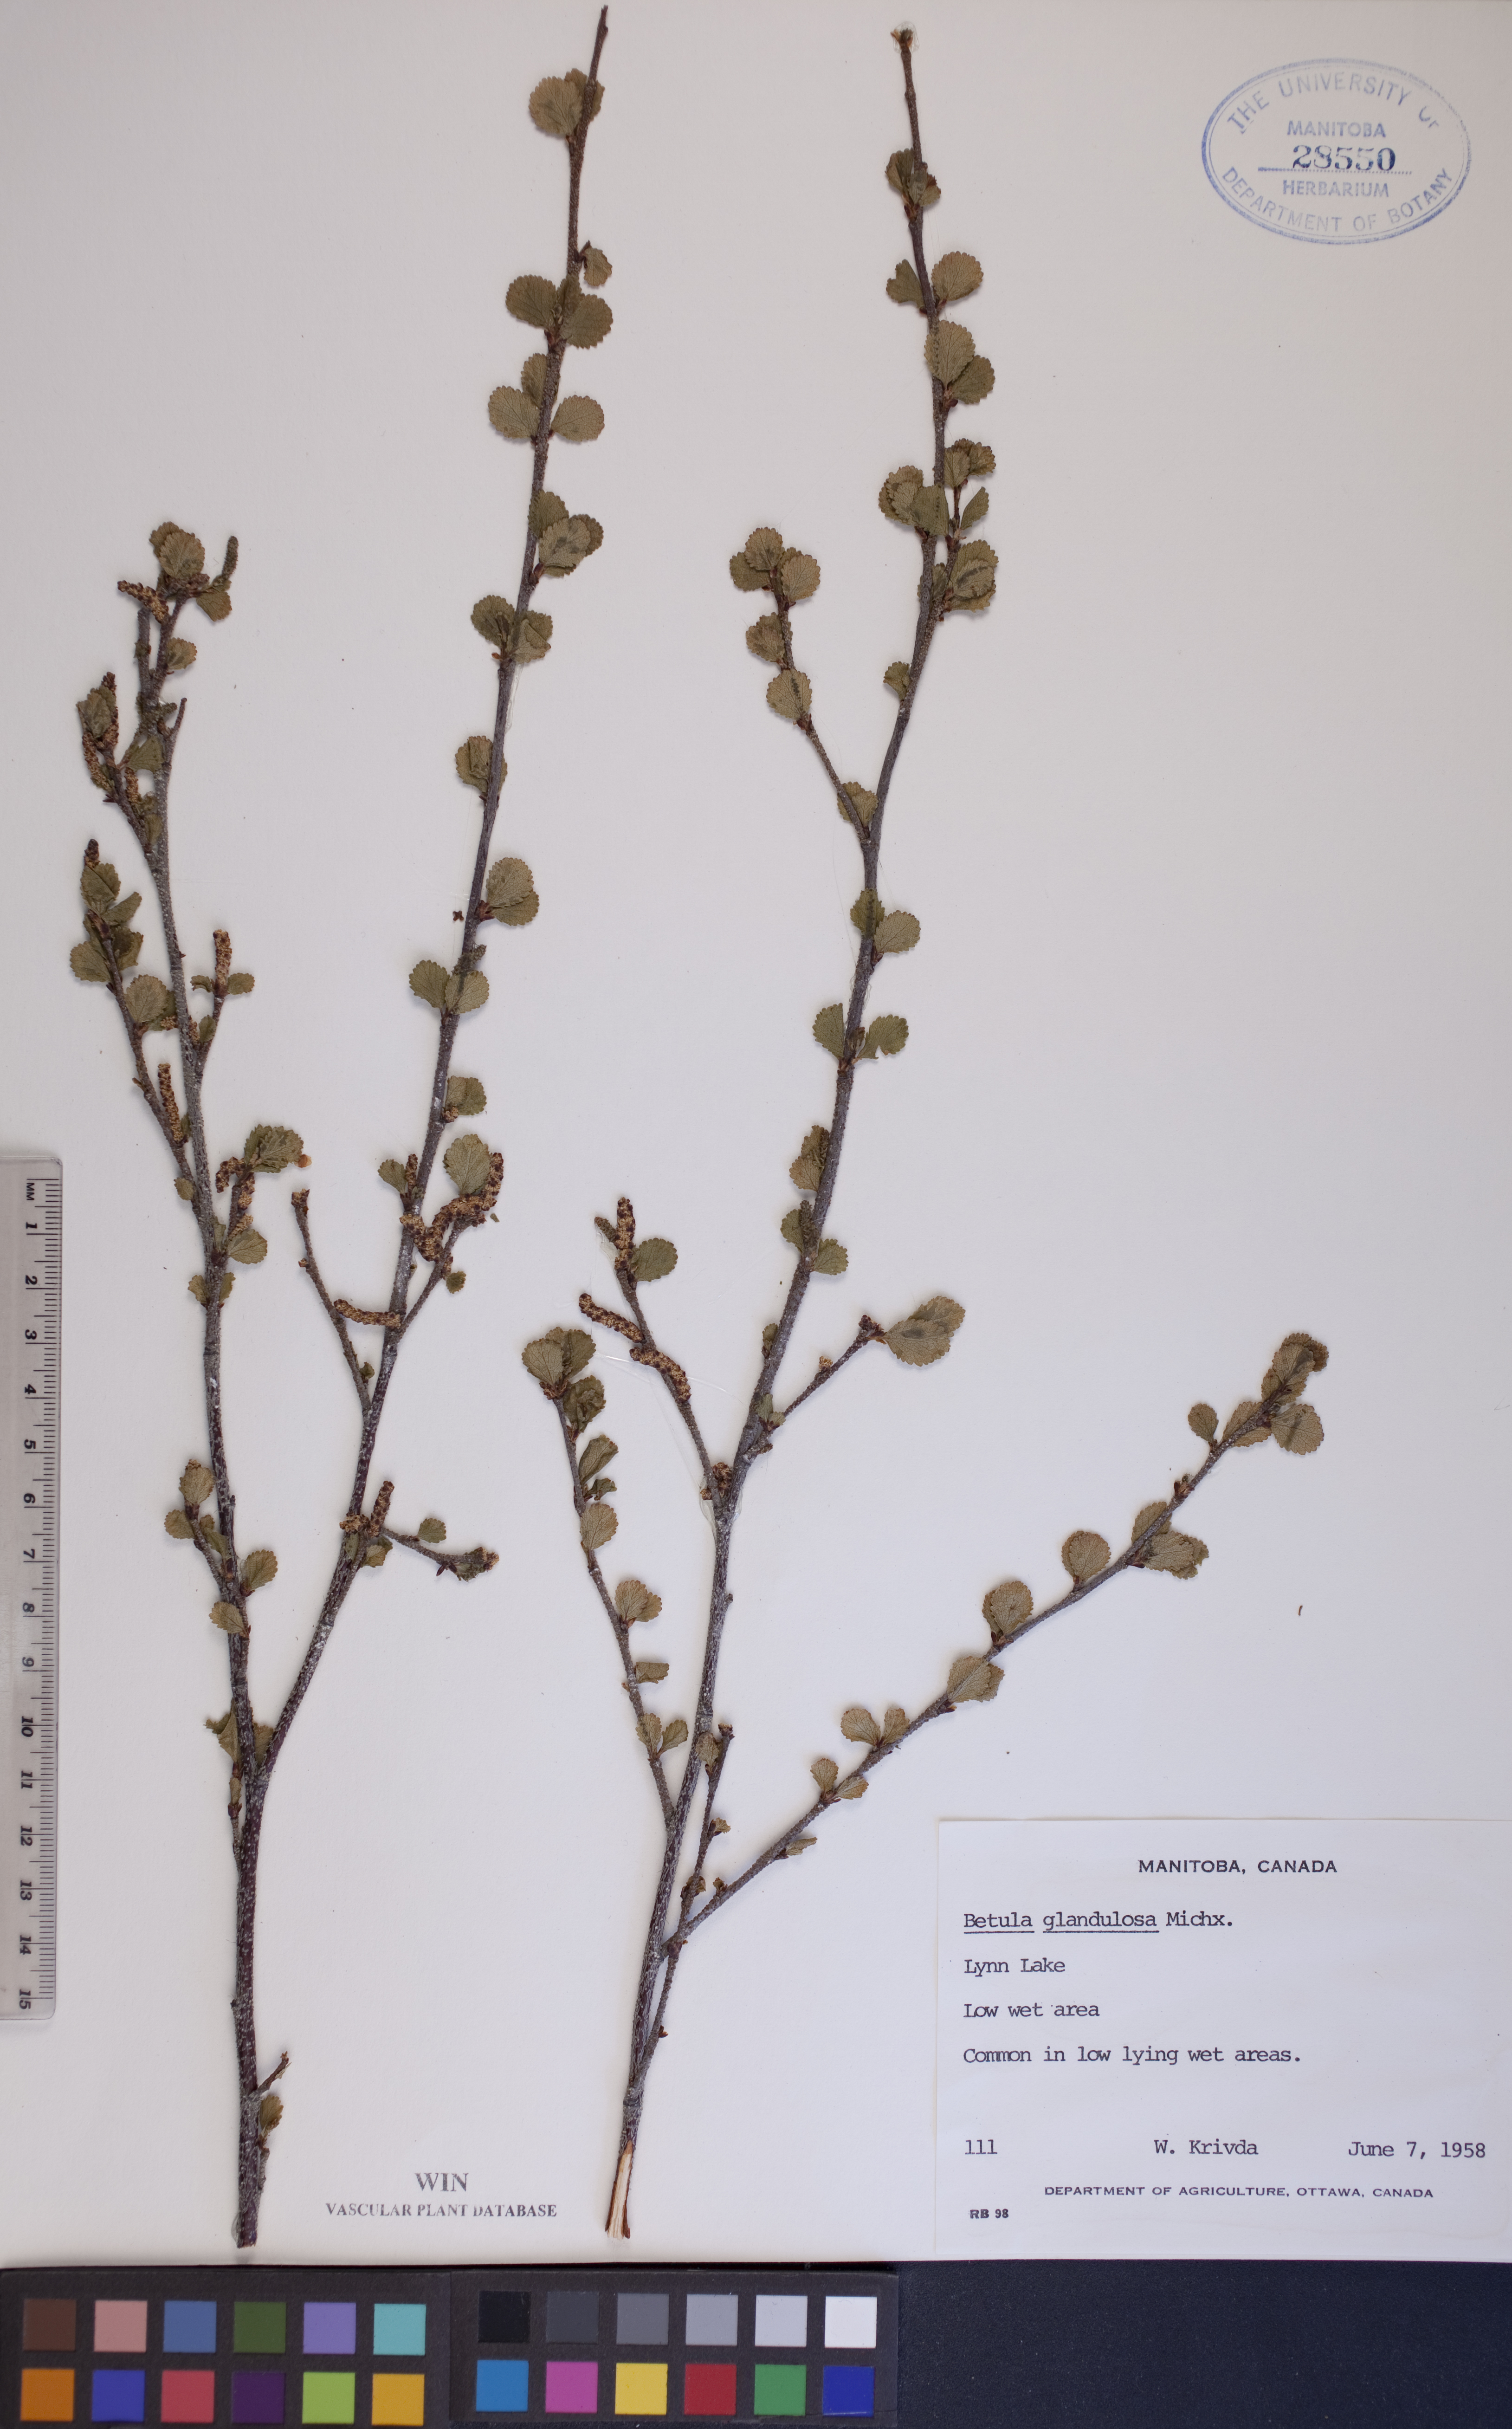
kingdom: Plantae
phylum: Tracheophyta
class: Magnoliopsida
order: Fagales
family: Betulaceae
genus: Betula
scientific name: Betula glandulosa
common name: Dwarf birch
